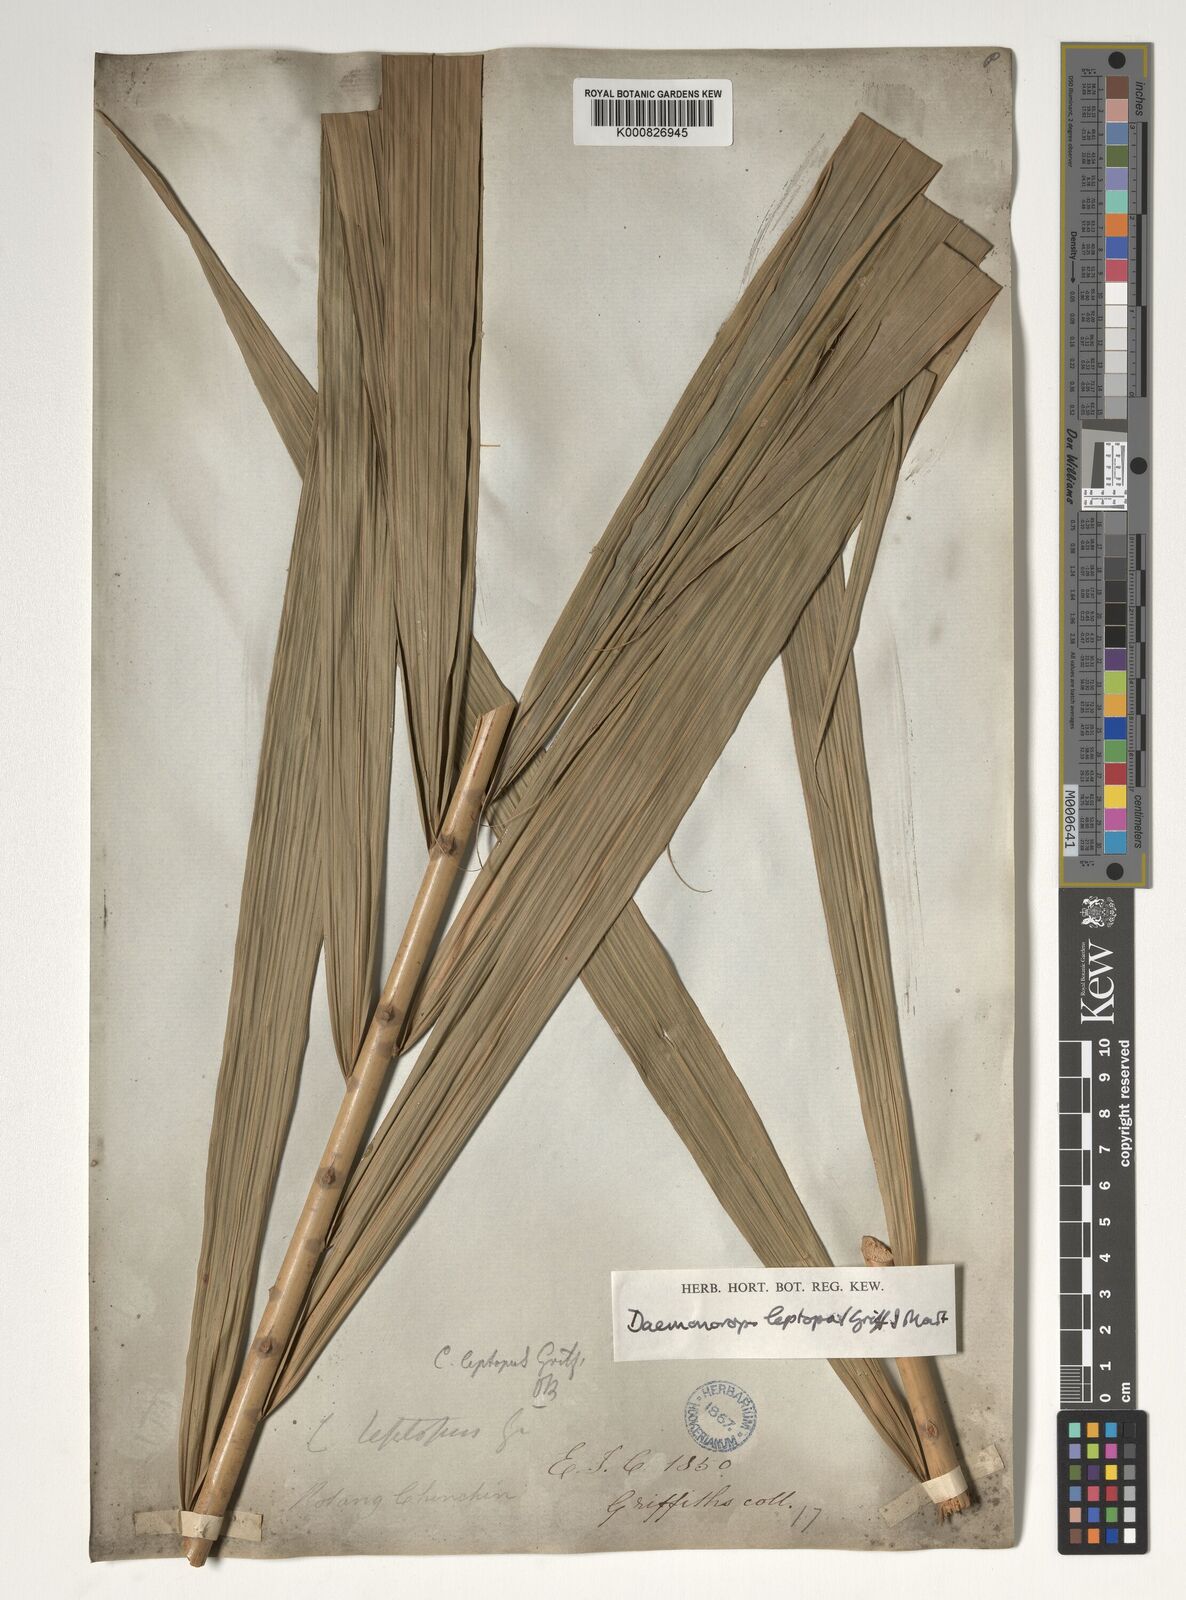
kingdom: Plantae
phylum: Tracheophyta
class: Liliopsida
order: Arecales
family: Arecaceae
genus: Calamus
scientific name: Calamus leptopus
